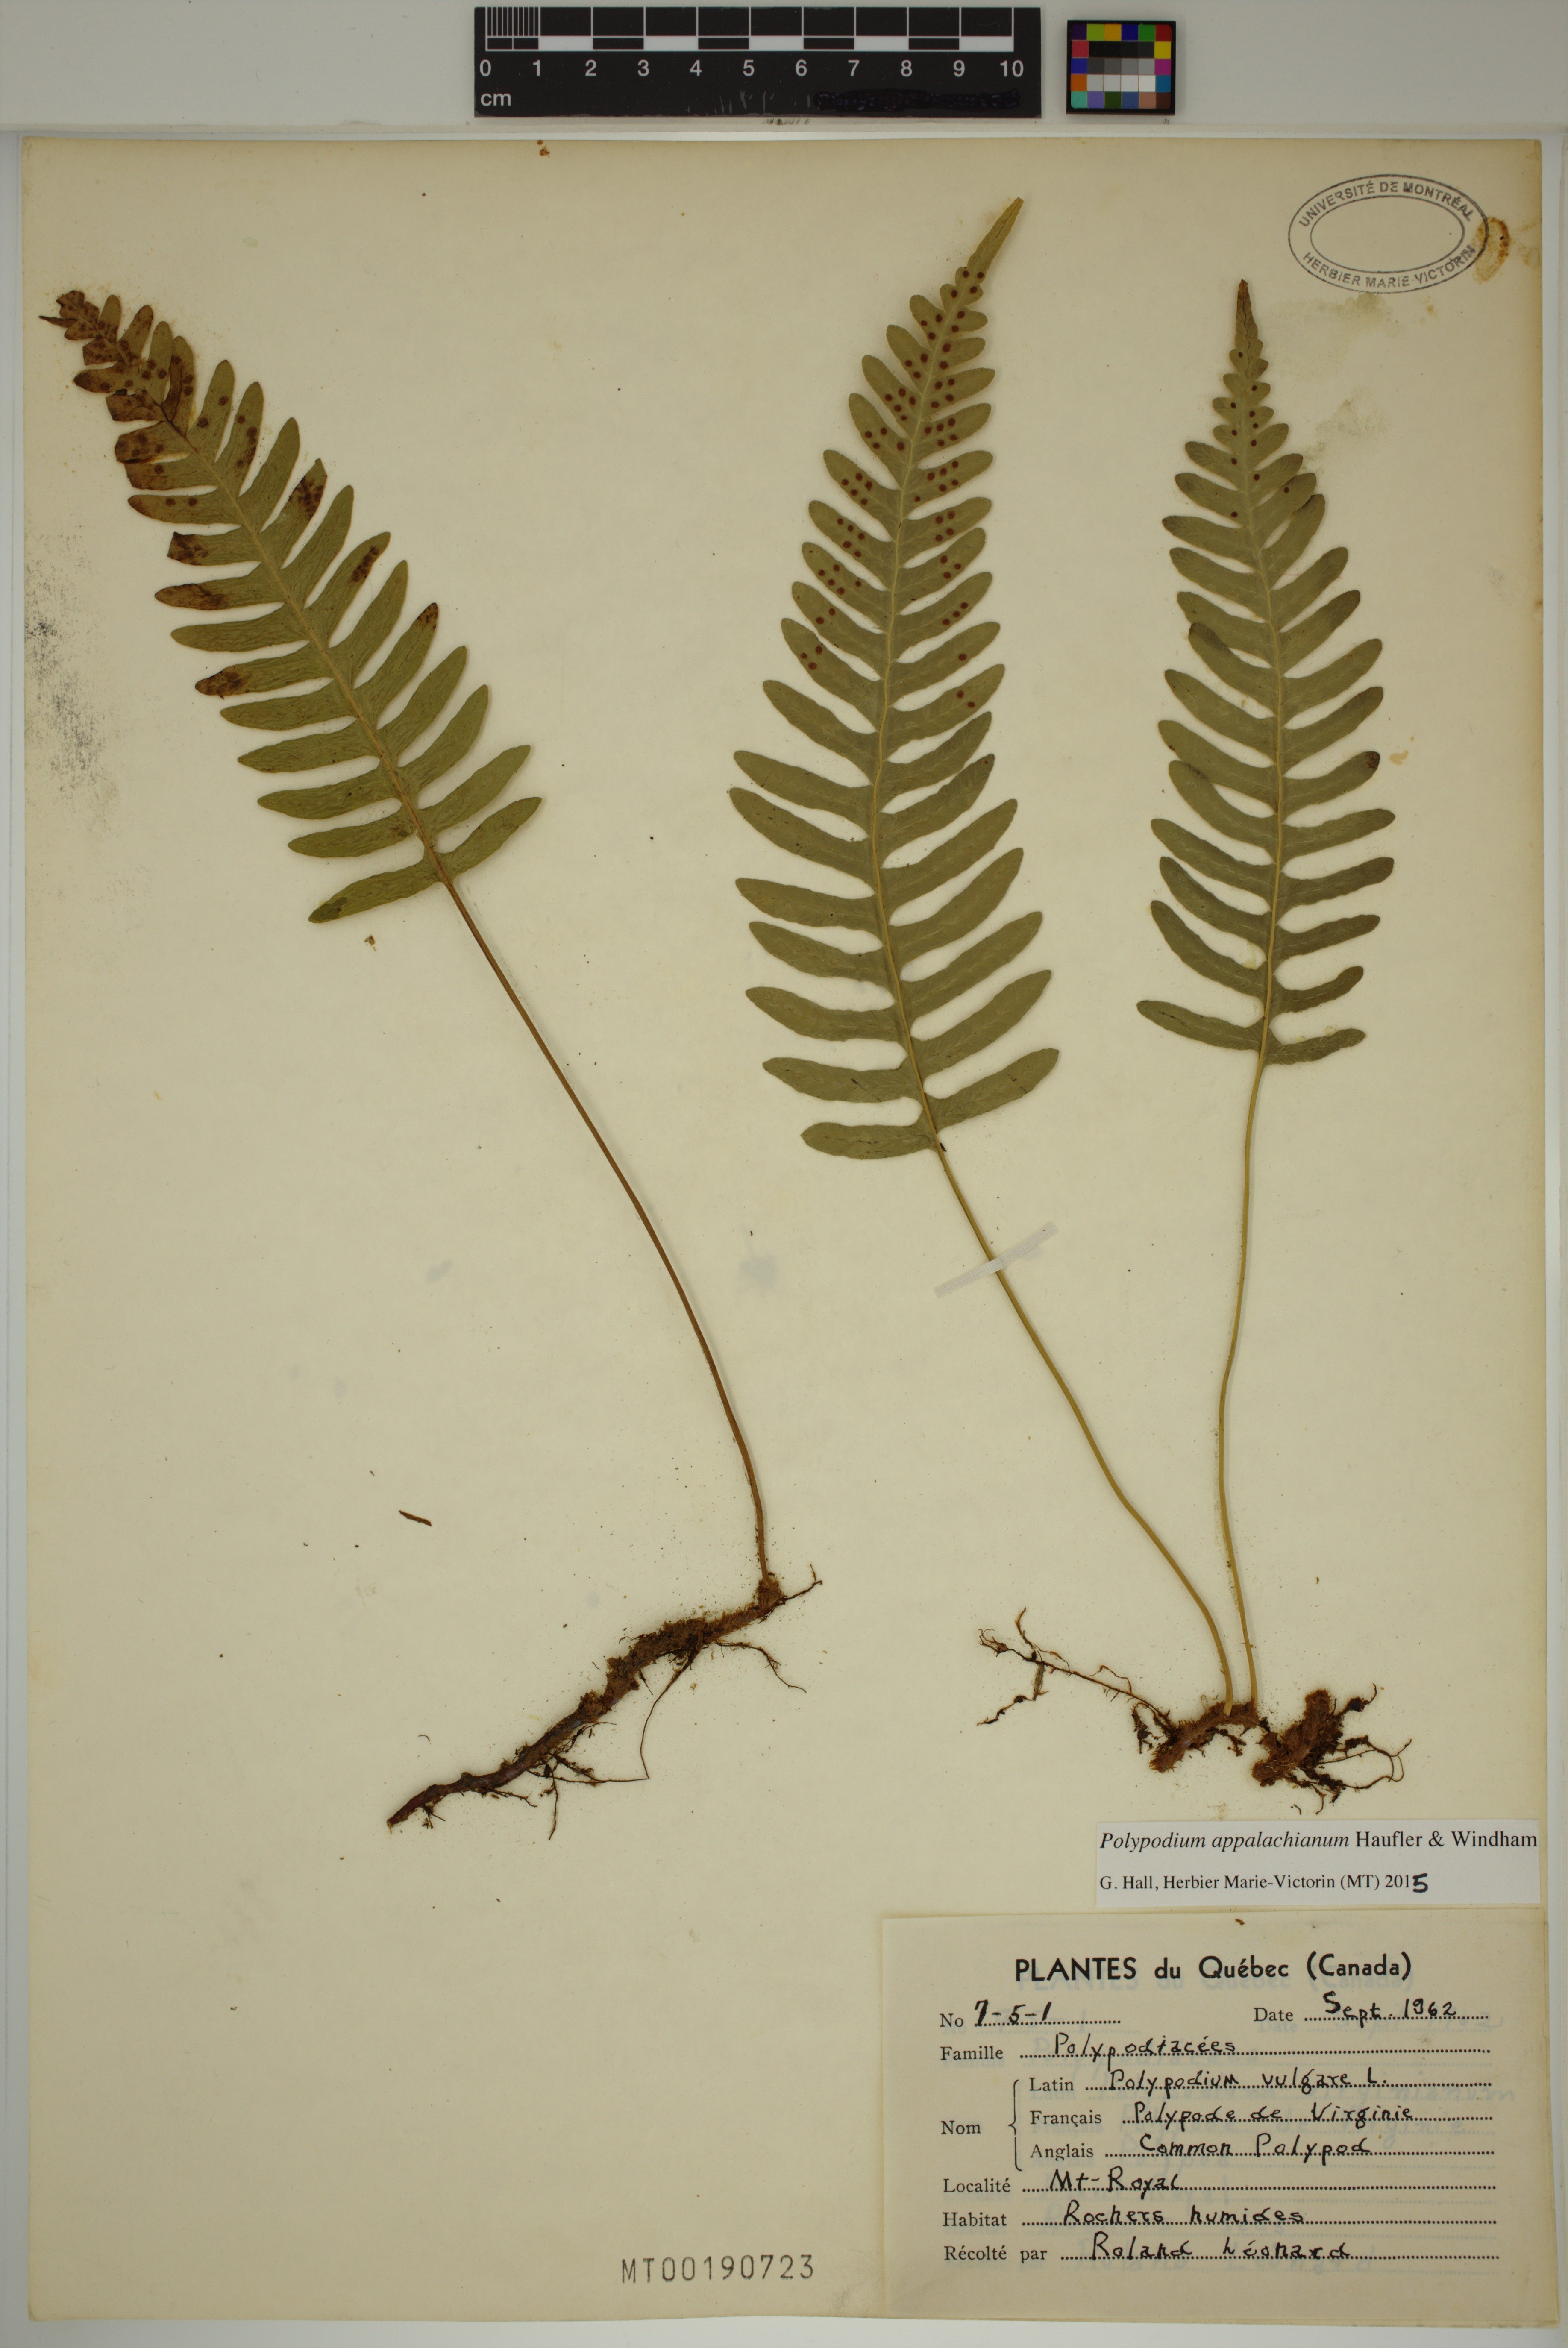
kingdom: Plantae
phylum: Tracheophyta
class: Polypodiopsida
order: Polypodiales
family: Polypodiaceae
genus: Polypodium
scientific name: Polypodium appalachianum
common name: Appalachian polypody
